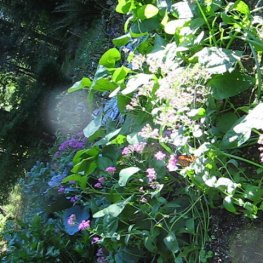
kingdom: Animalia
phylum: Arthropoda
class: Insecta
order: Lepidoptera
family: Nymphalidae
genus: Danaus
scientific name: Danaus plexippus
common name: Monarch
